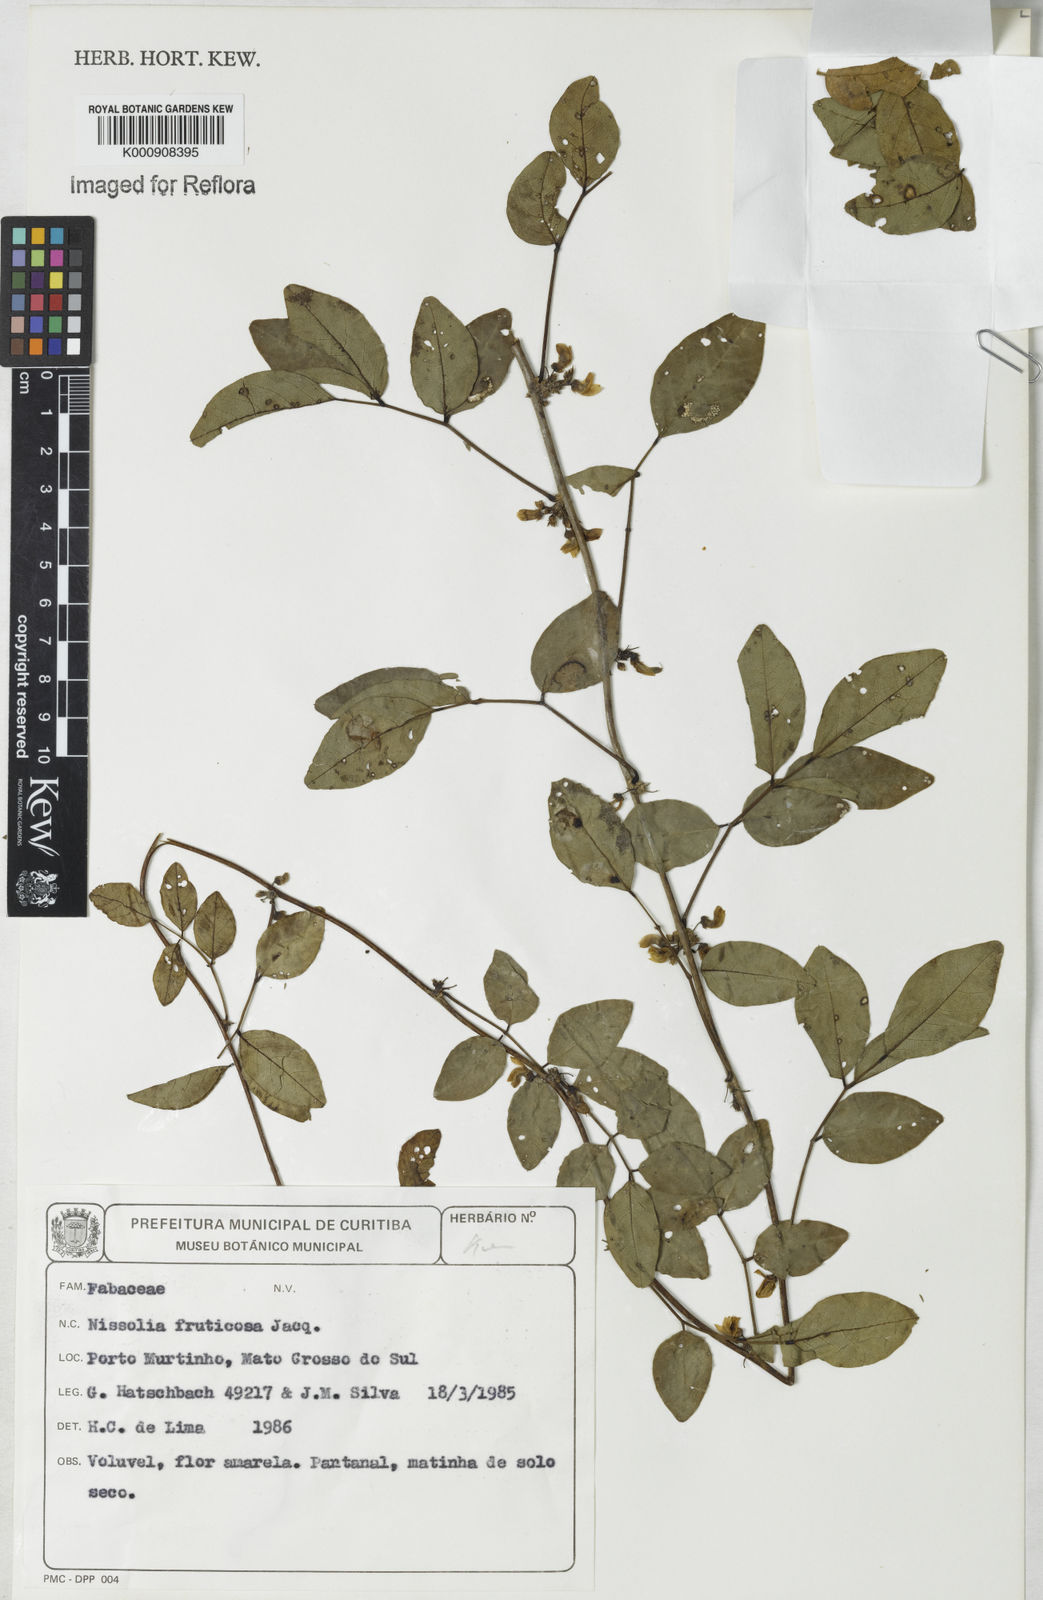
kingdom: Plantae
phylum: Tracheophyta
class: Magnoliopsida
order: Fabales
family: Fabaceae
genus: Nissolia
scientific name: Nissolia fruticosa
